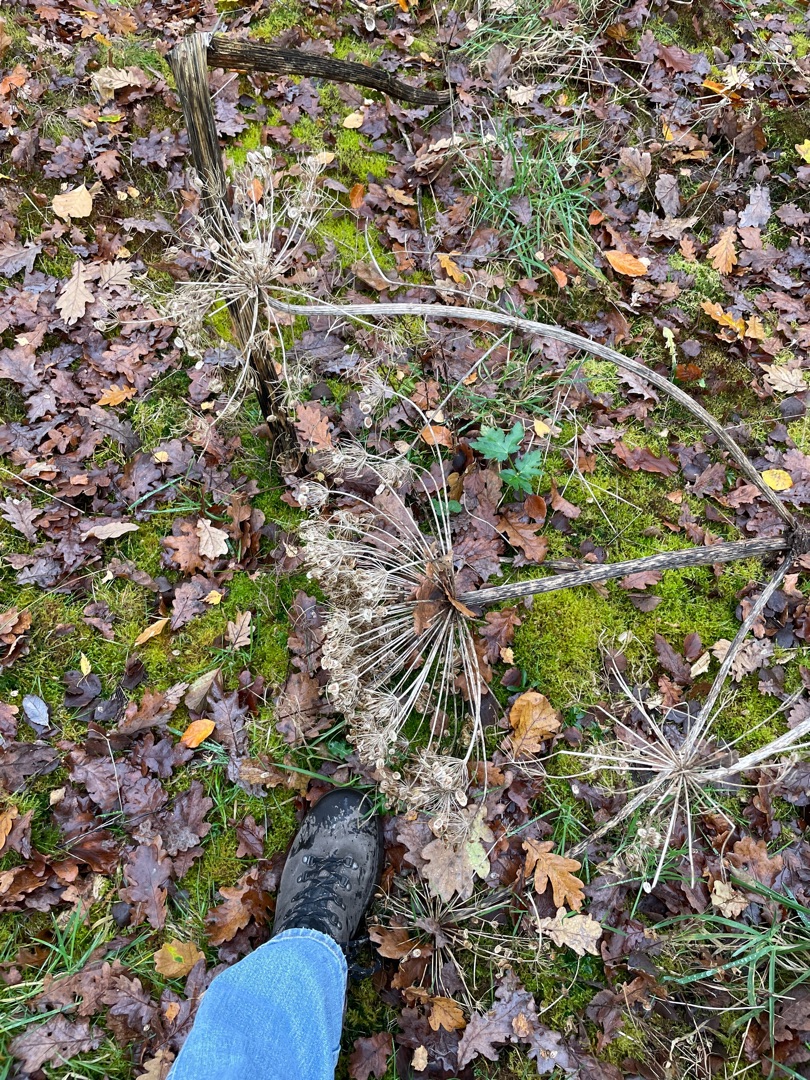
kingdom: Plantae
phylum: Tracheophyta
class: Magnoliopsida
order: Apiales
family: Apiaceae
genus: Heracleum
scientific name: Heracleum mantegazzianum
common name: Kæmpe-bjørneklo
